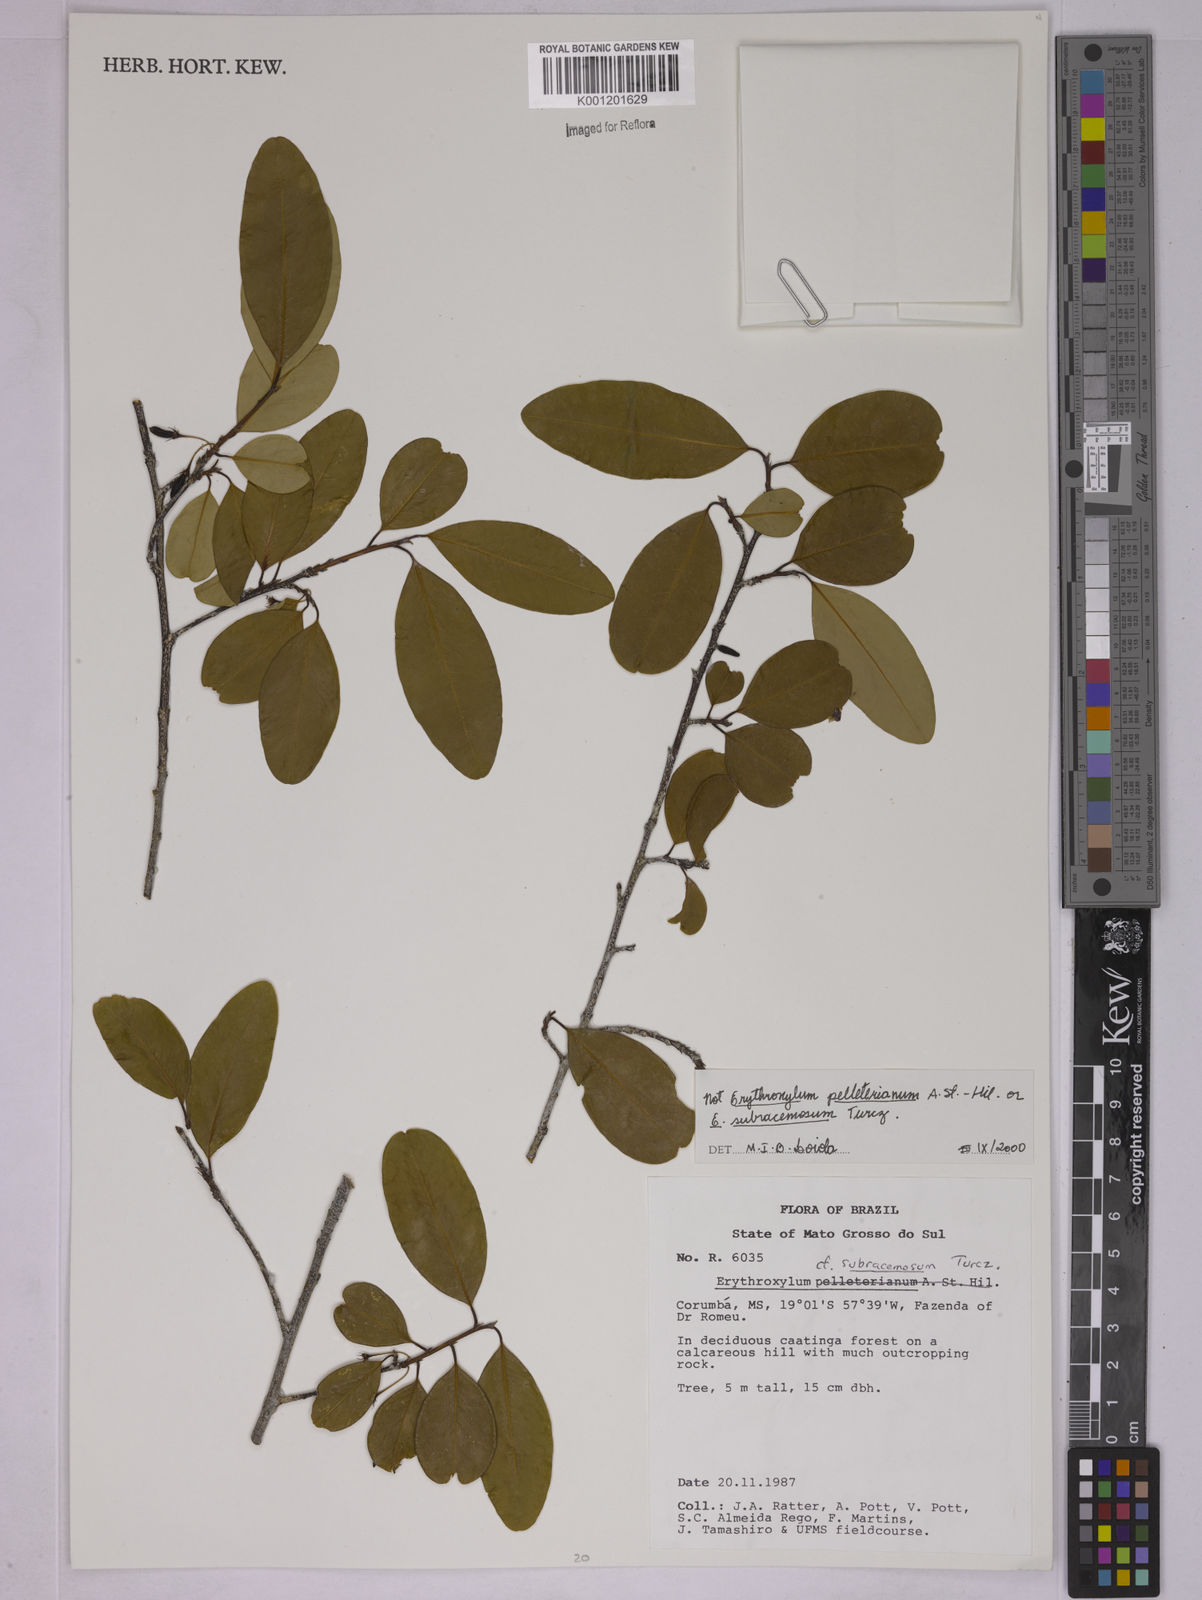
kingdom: Plantae
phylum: Tracheophyta
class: Magnoliopsida
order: Malpighiales
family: Erythroxylaceae
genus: Erythroxylum
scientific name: Erythroxylum
